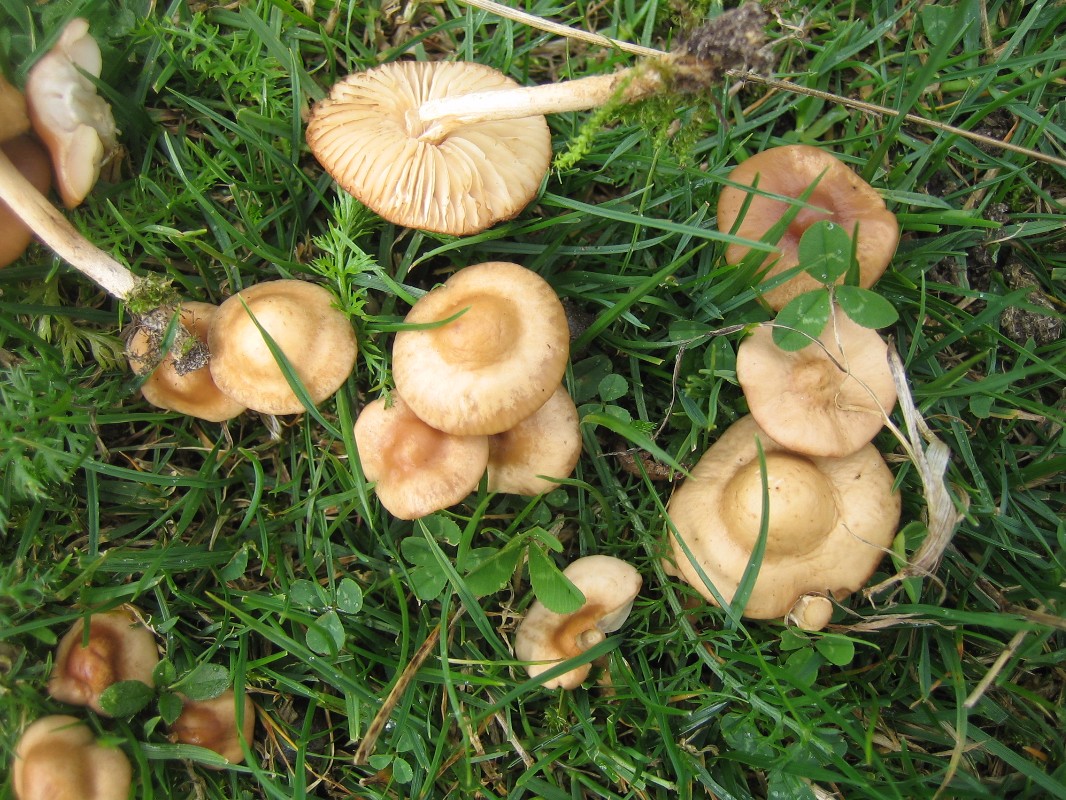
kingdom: Fungi
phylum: Basidiomycota
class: Agaricomycetes
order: Agaricales
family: Marasmiaceae
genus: Marasmius
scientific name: Marasmius oreades
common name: elledans-bruskhat
